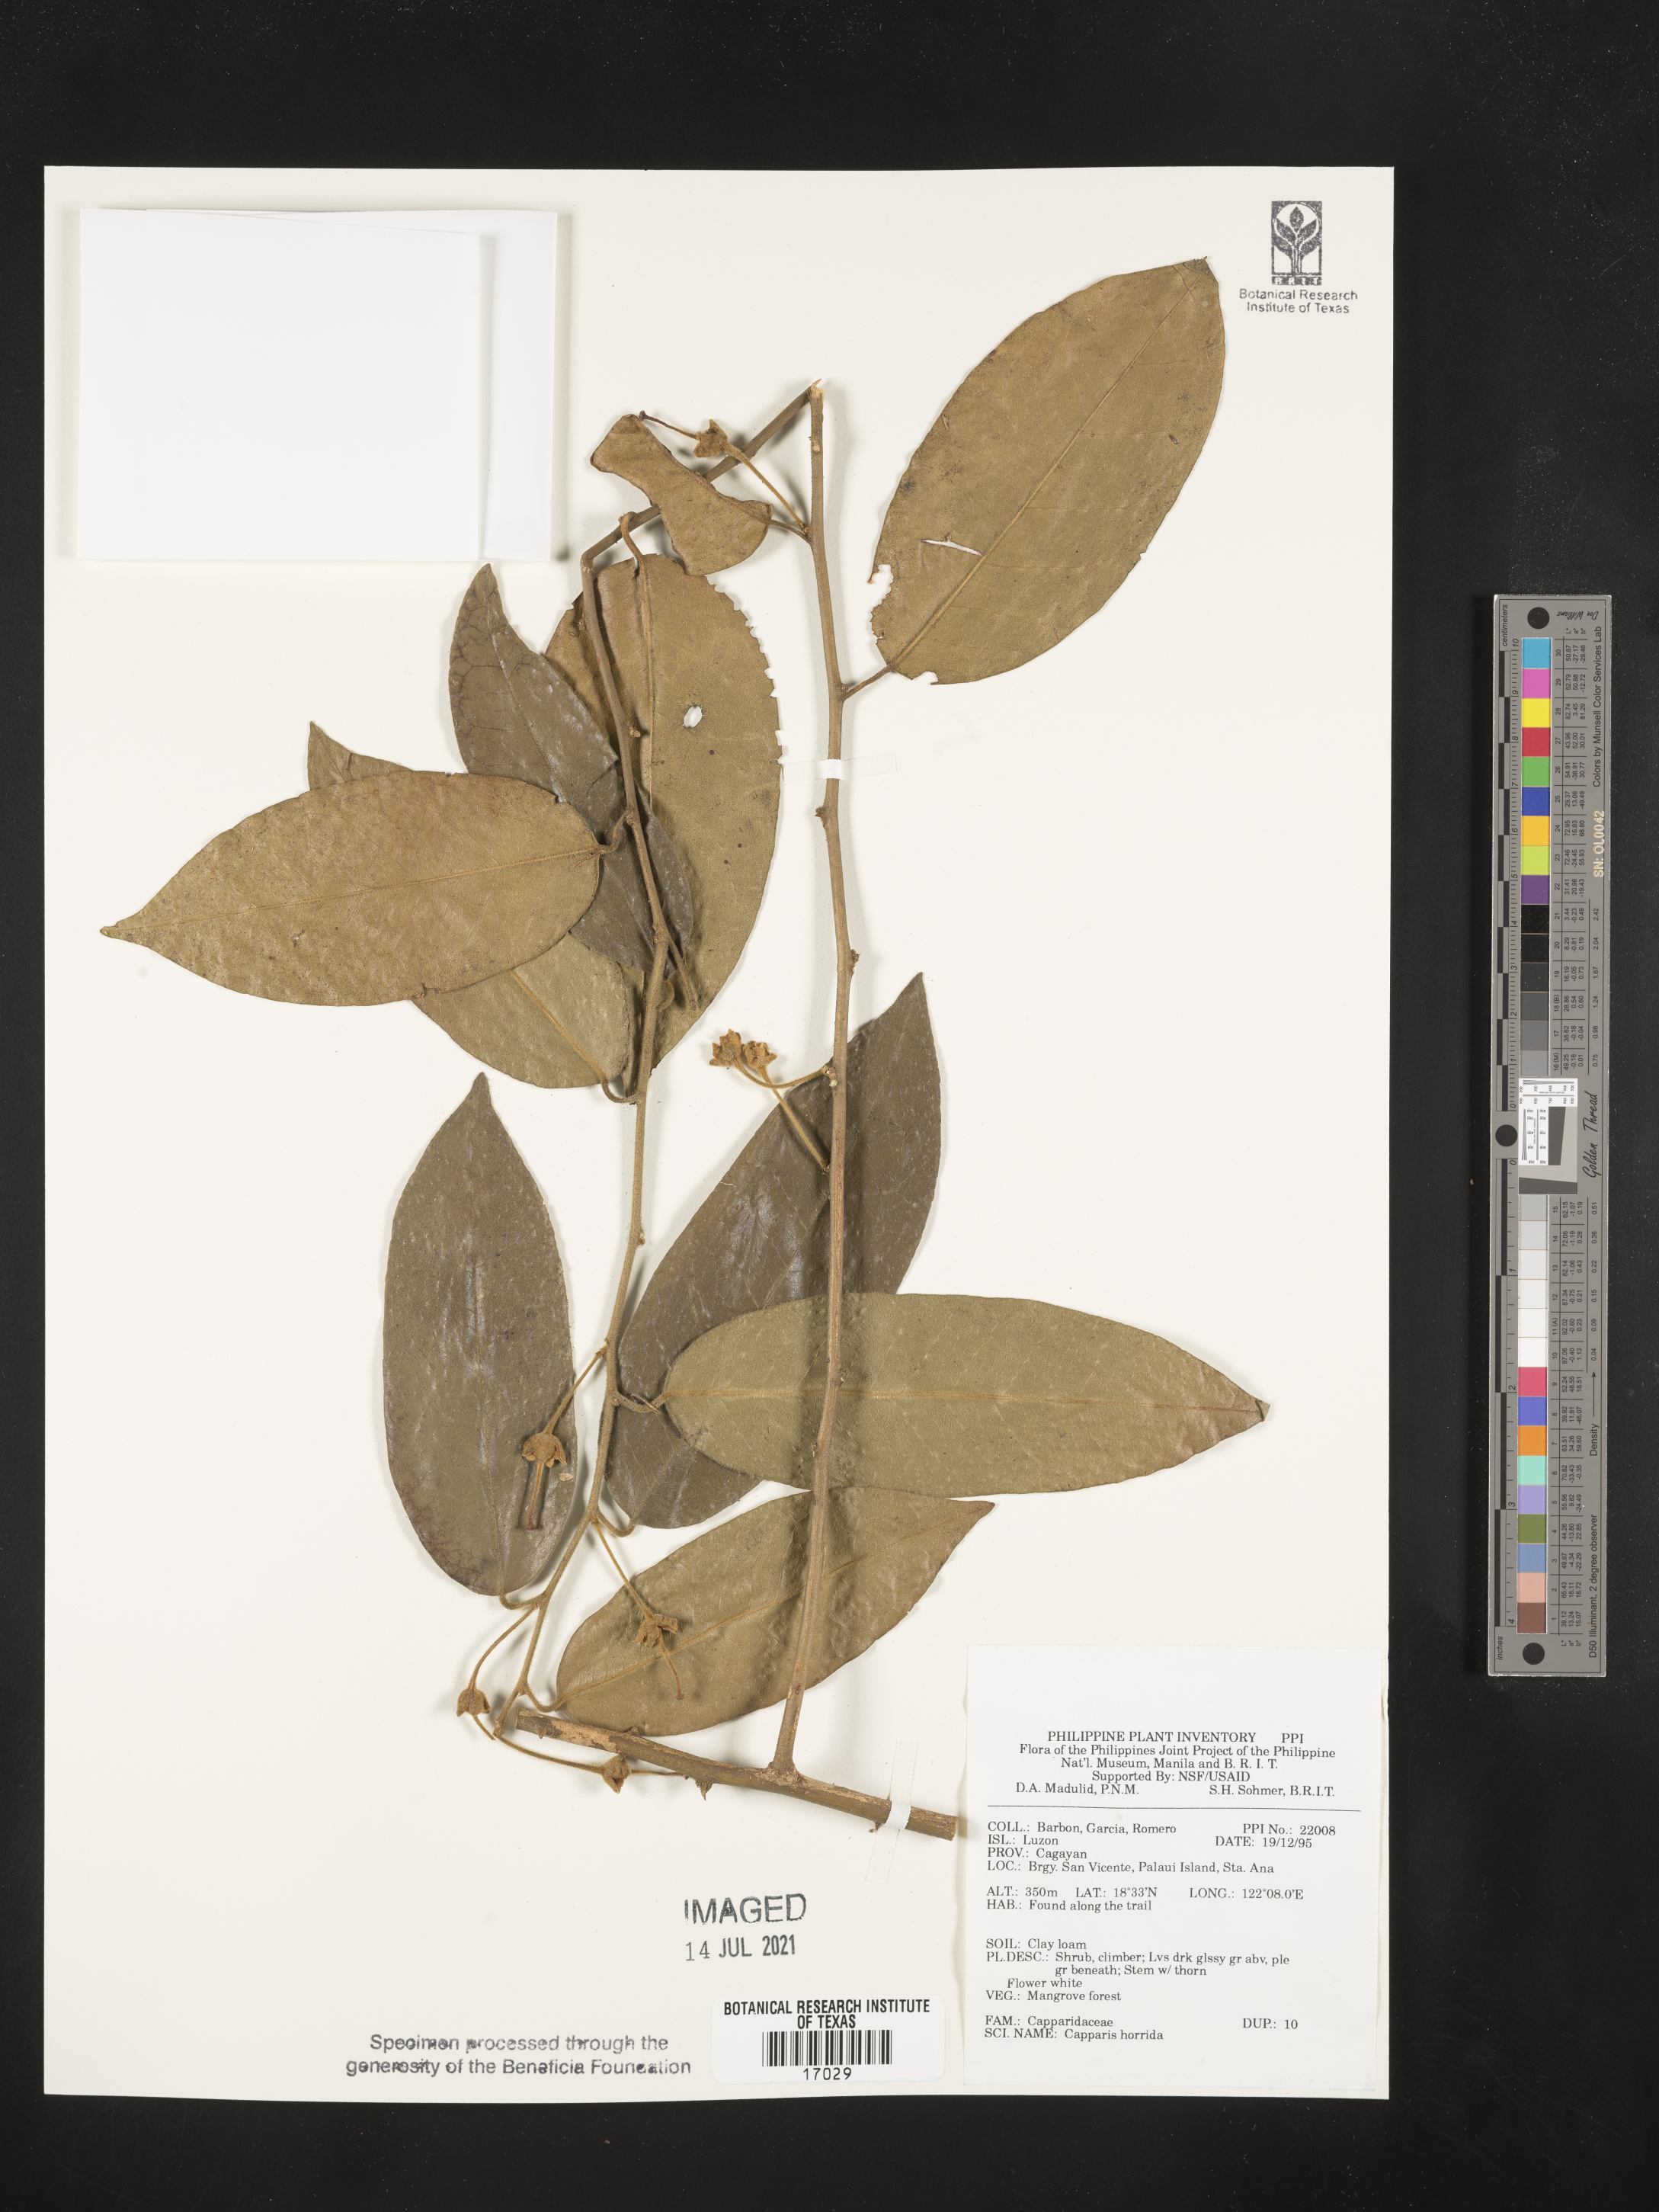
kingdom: Plantae
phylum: Tracheophyta
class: Magnoliopsida
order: Brassicales
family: Capparaceae
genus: Capparis
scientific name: Capparis divaricata
